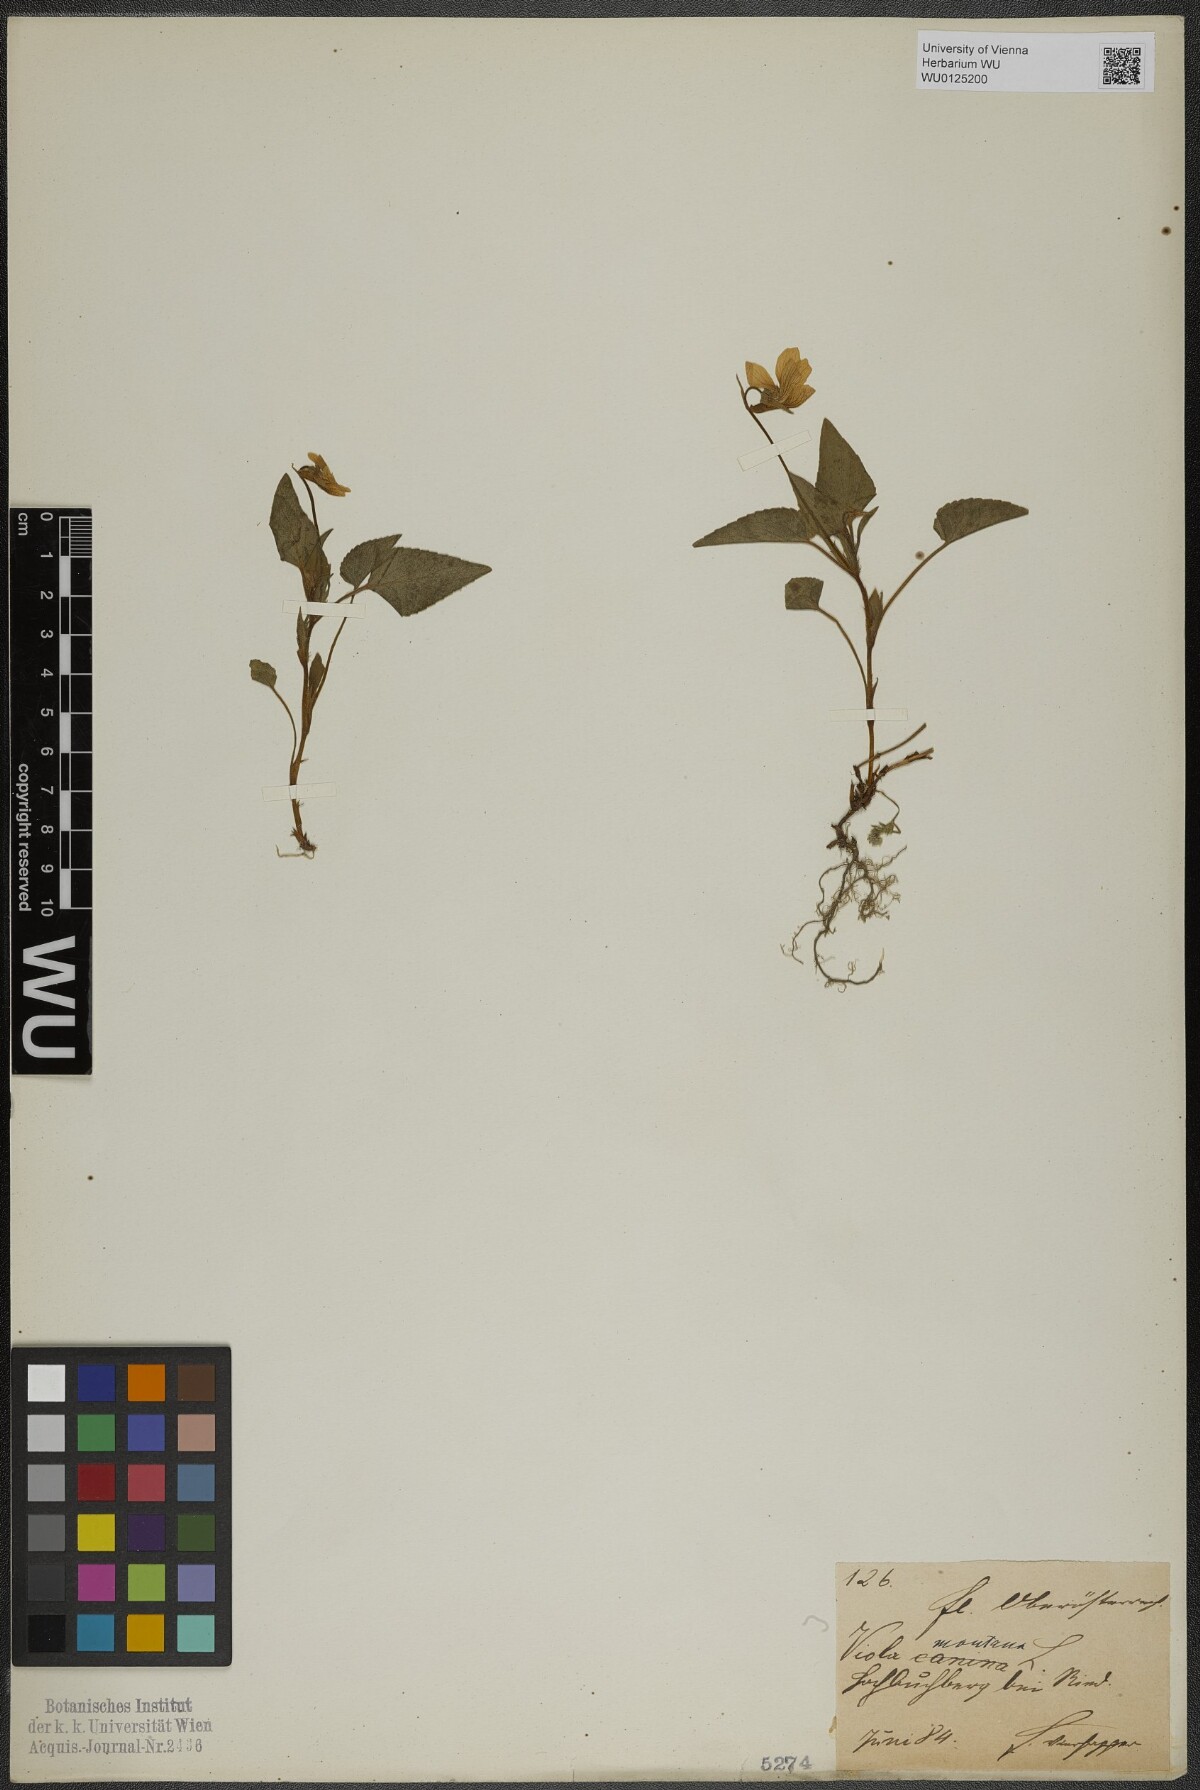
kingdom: Plantae
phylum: Tracheophyta
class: Magnoliopsida
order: Malpighiales
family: Violaceae
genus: Viola
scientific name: Viola ruppii
